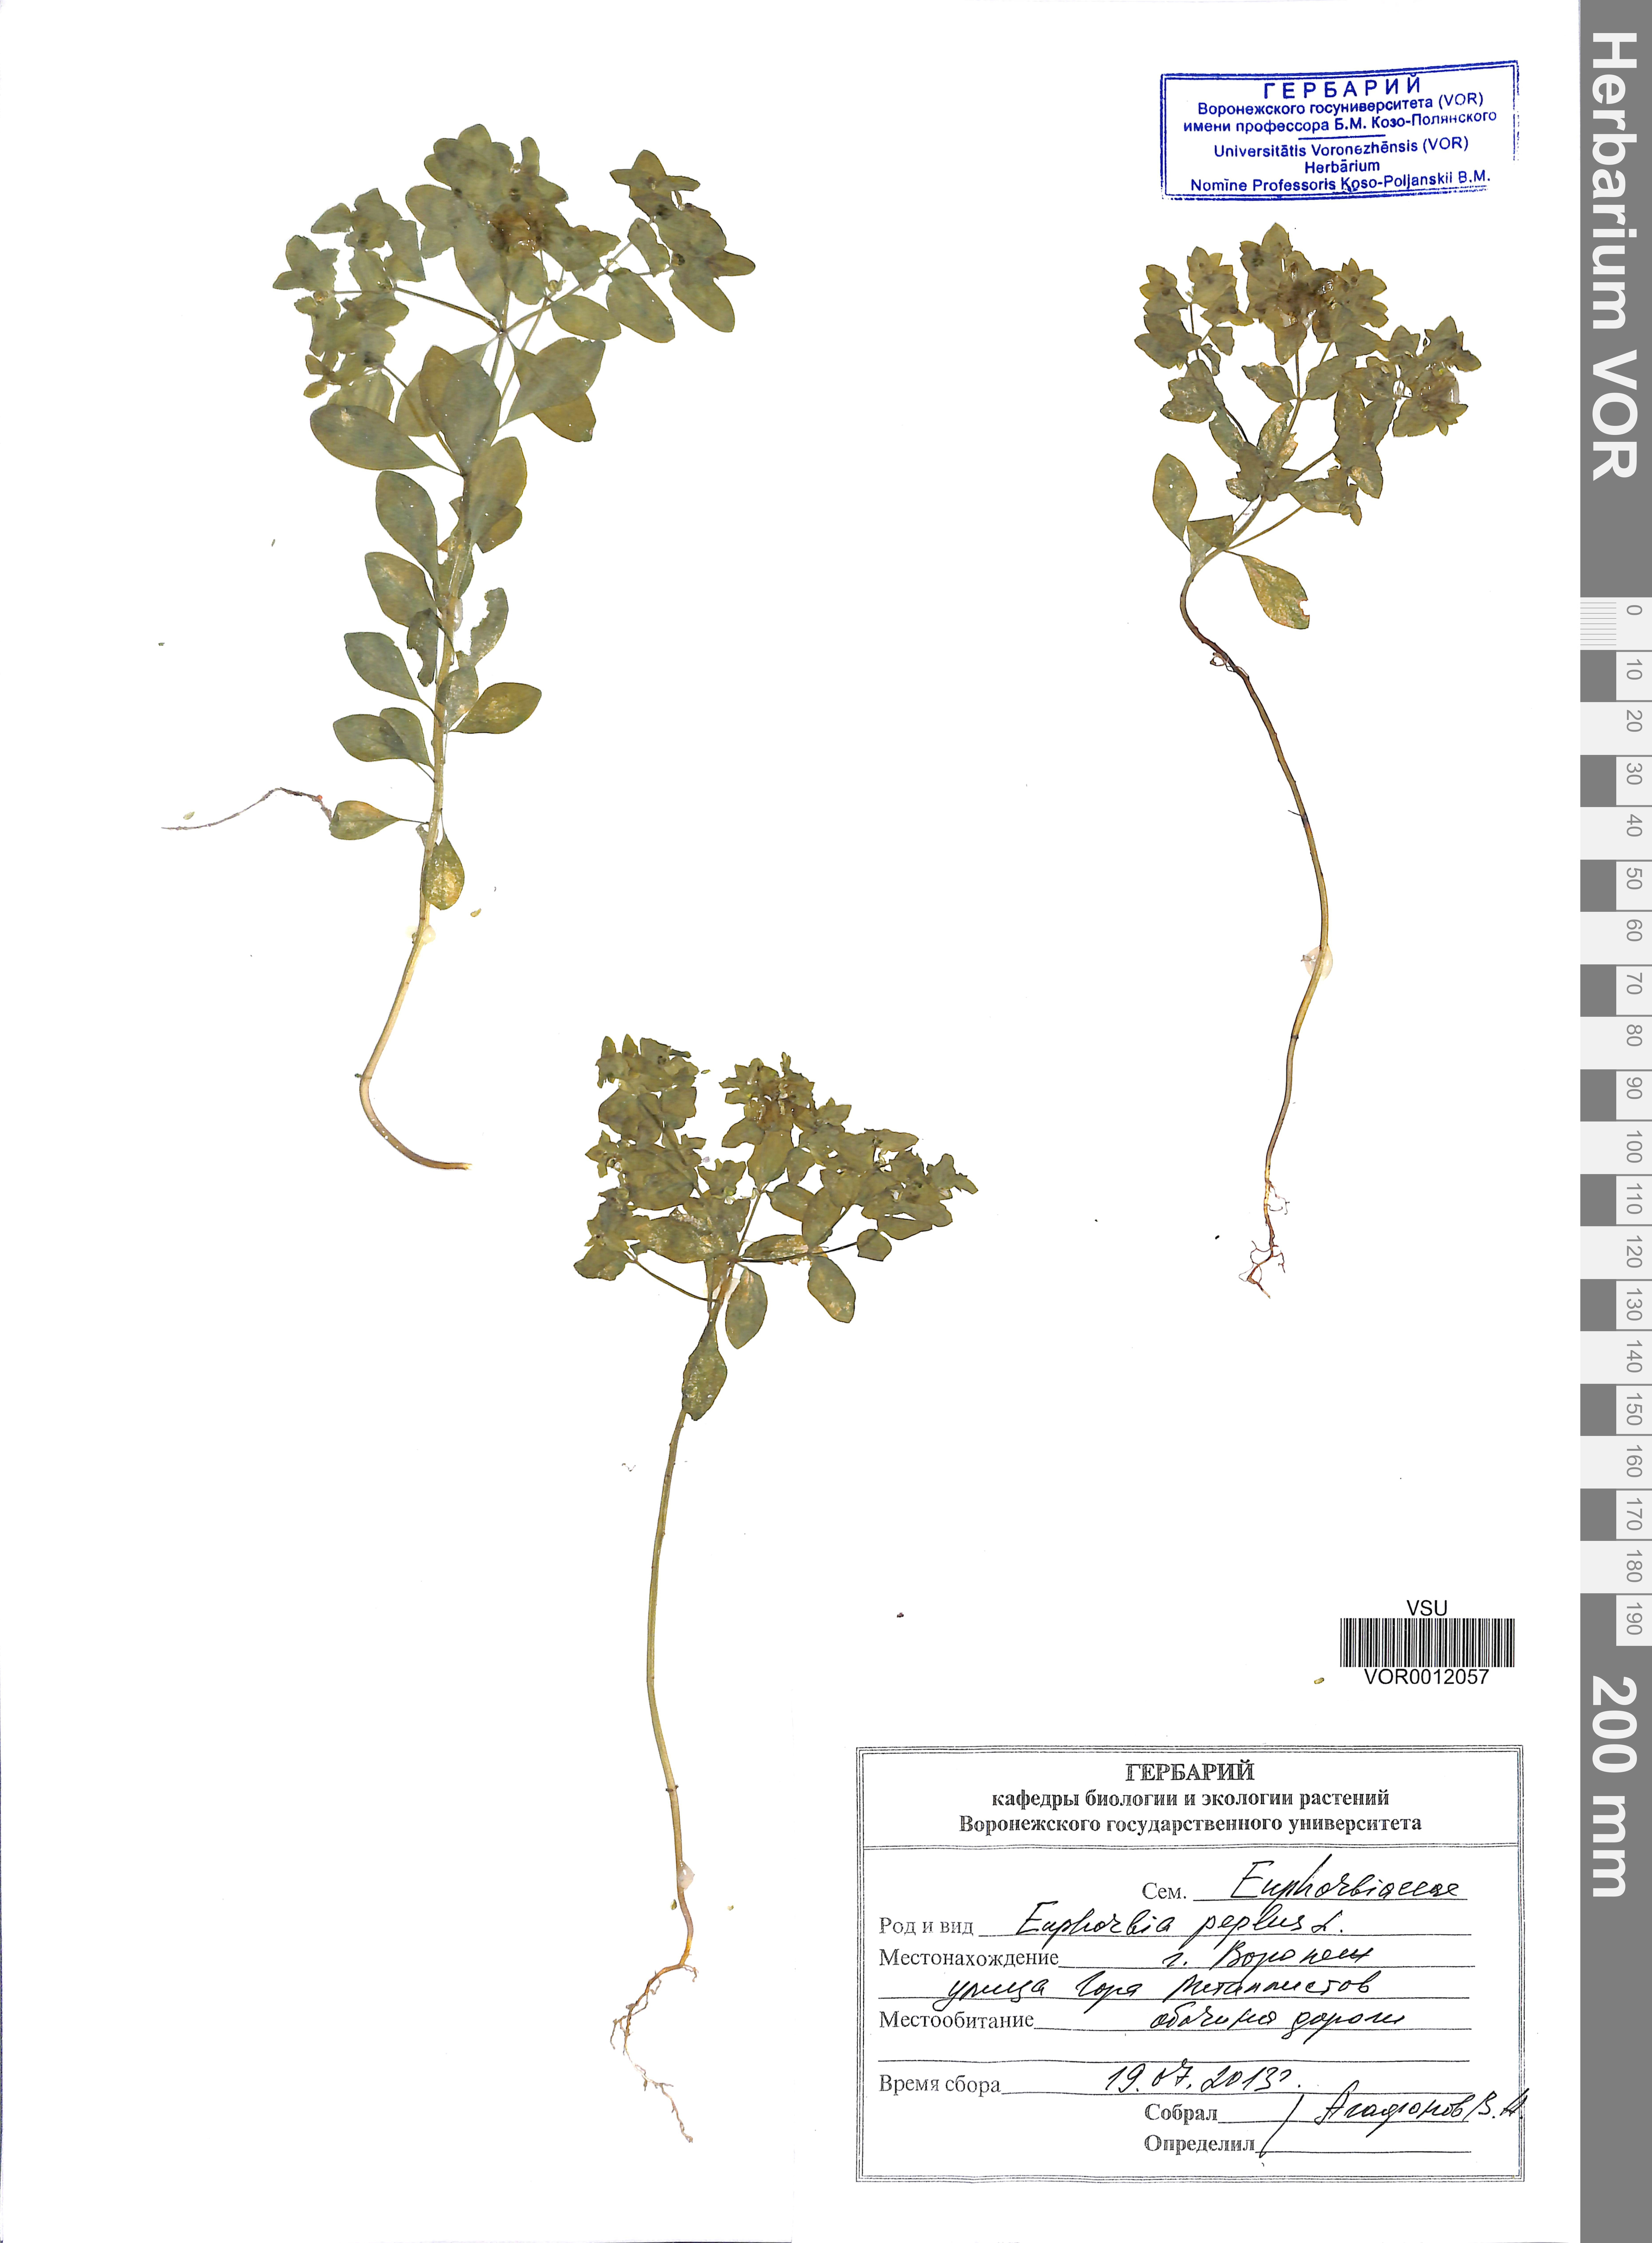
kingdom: Plantae
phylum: Tracheophyta
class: Magnoliopsida
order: Malpighiales
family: Euphorbiaceae
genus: Euphorbia
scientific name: Euphorbia peplus
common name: Petty spurge
